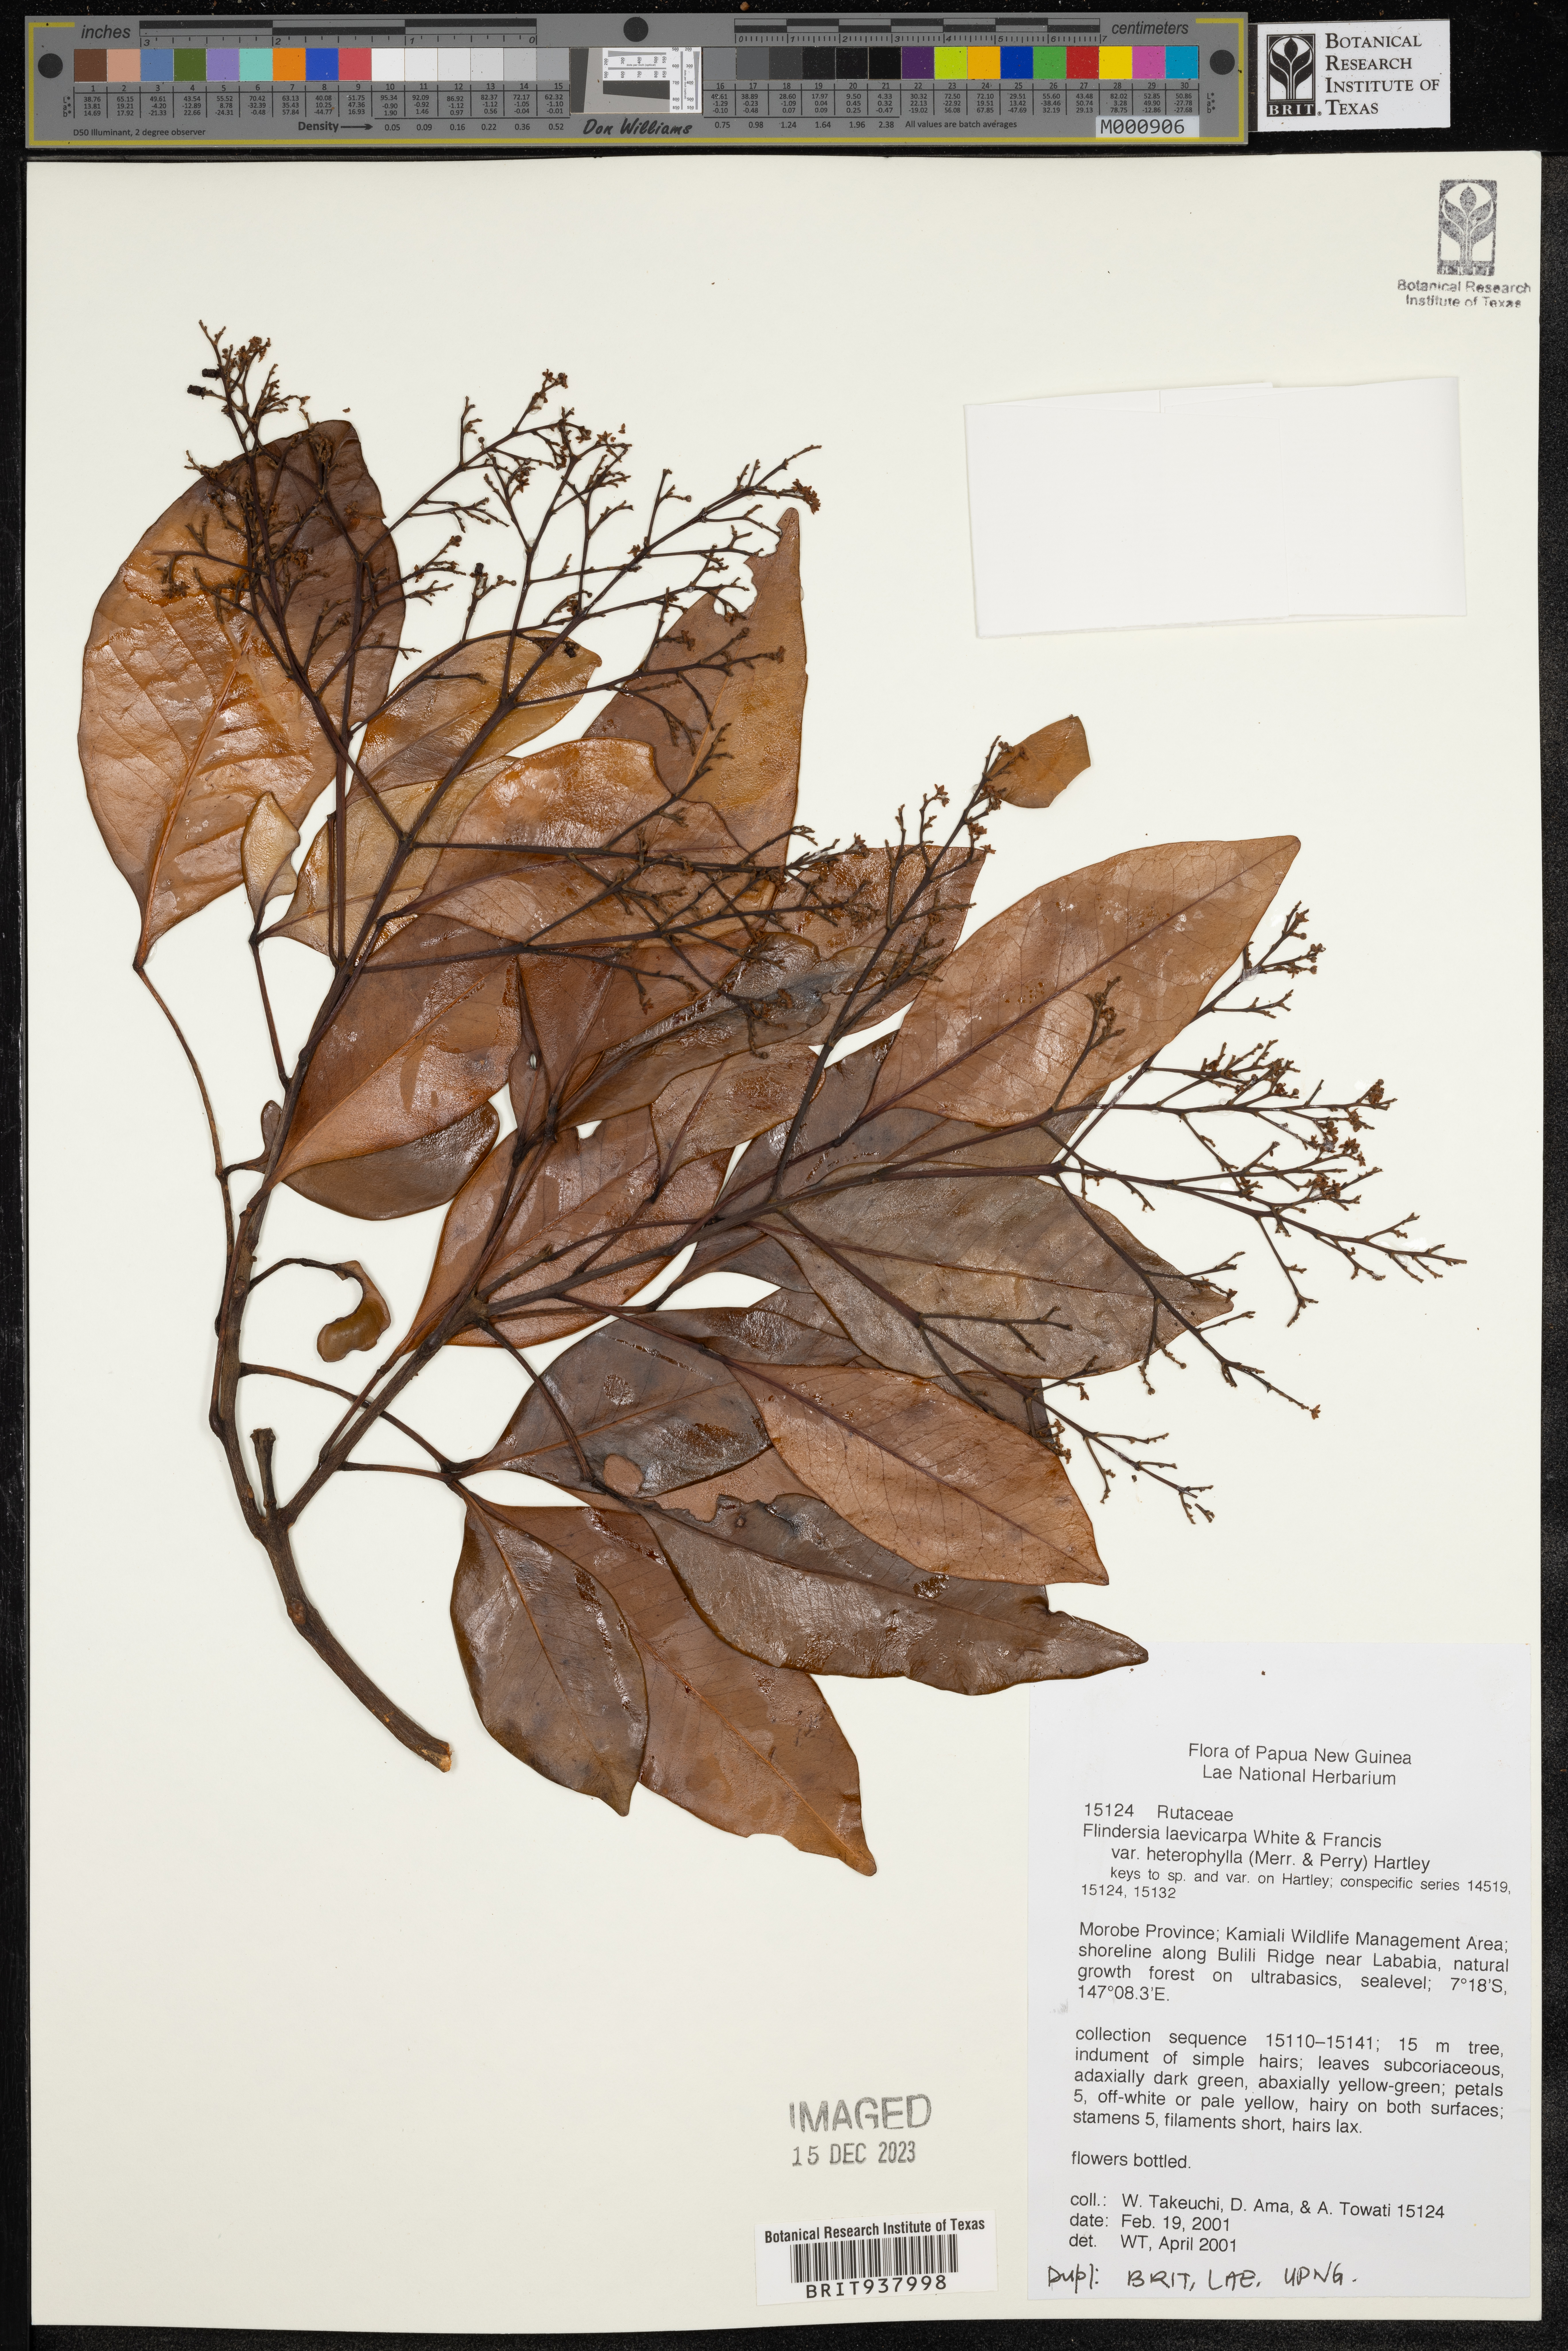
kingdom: Plantae
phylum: Tracheophyta
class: Magnoliopsida
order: Sapindales
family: Rutaceae
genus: Flindersia
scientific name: Flindersia
